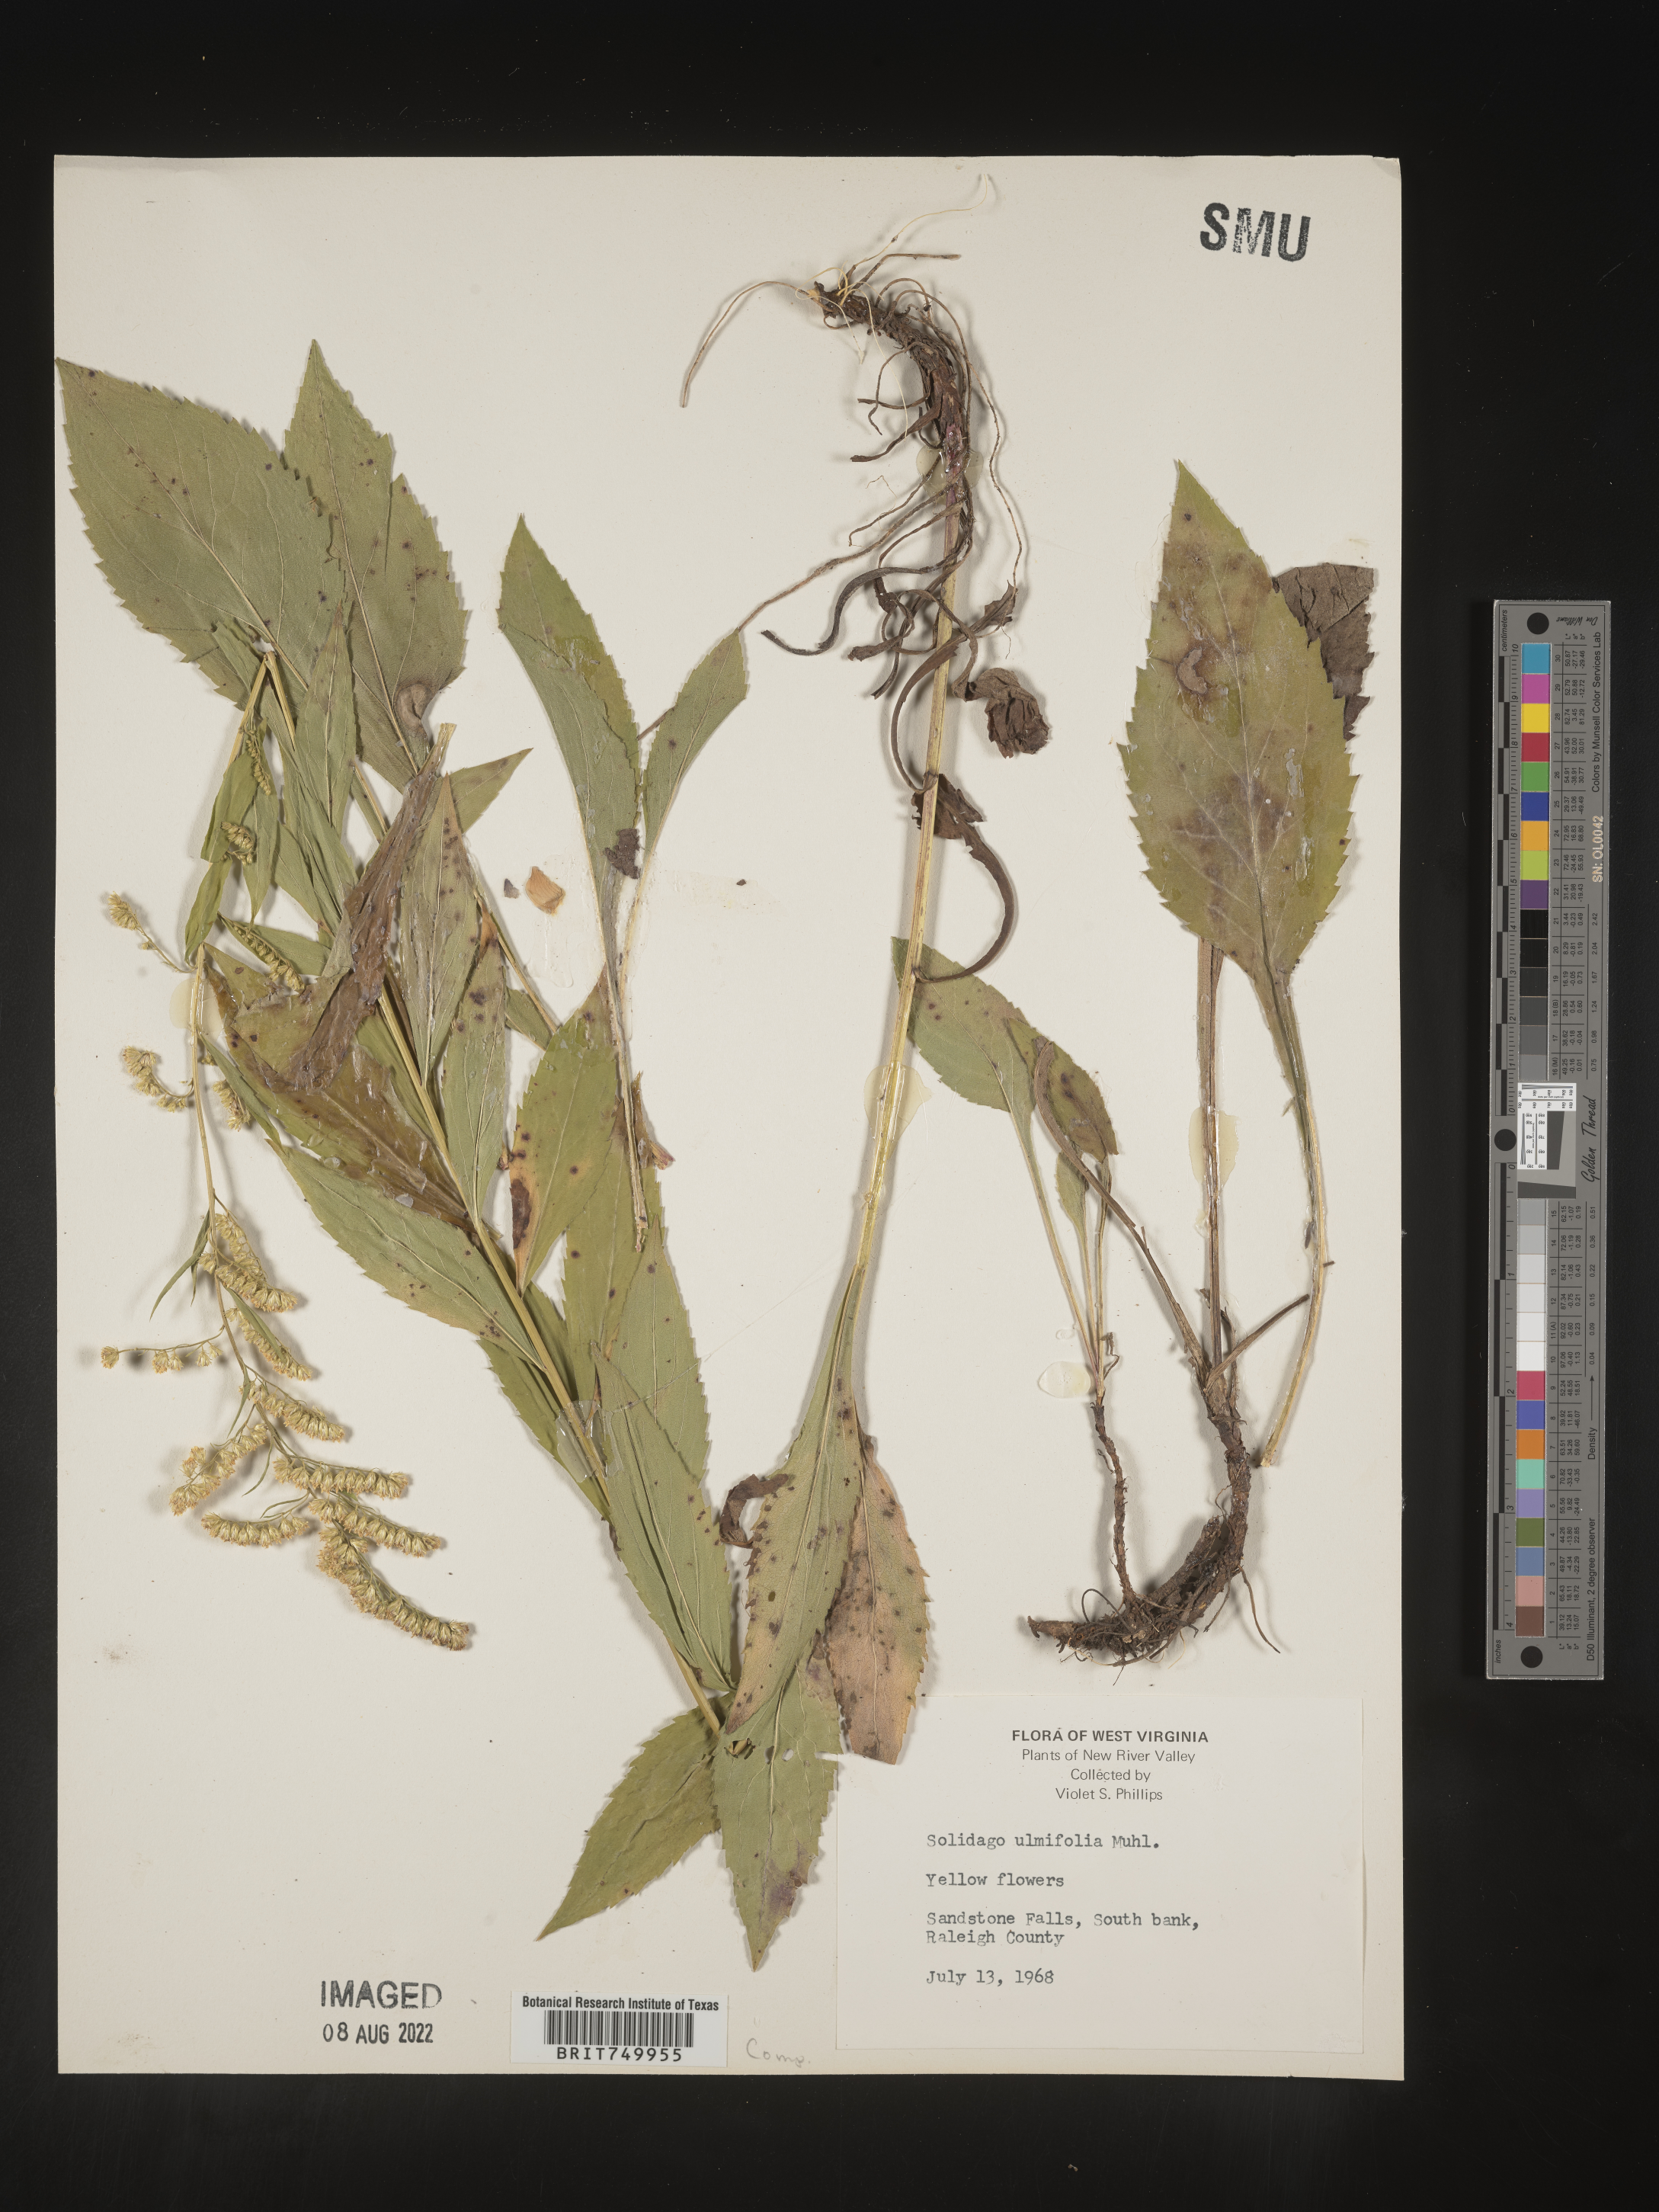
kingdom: Plantae
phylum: Tracheophyta
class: Magnoliopsida
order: Asterales
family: Asteraceae
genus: Solidago
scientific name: Solidago ulmifolia
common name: Elm-leaf goldenrod
